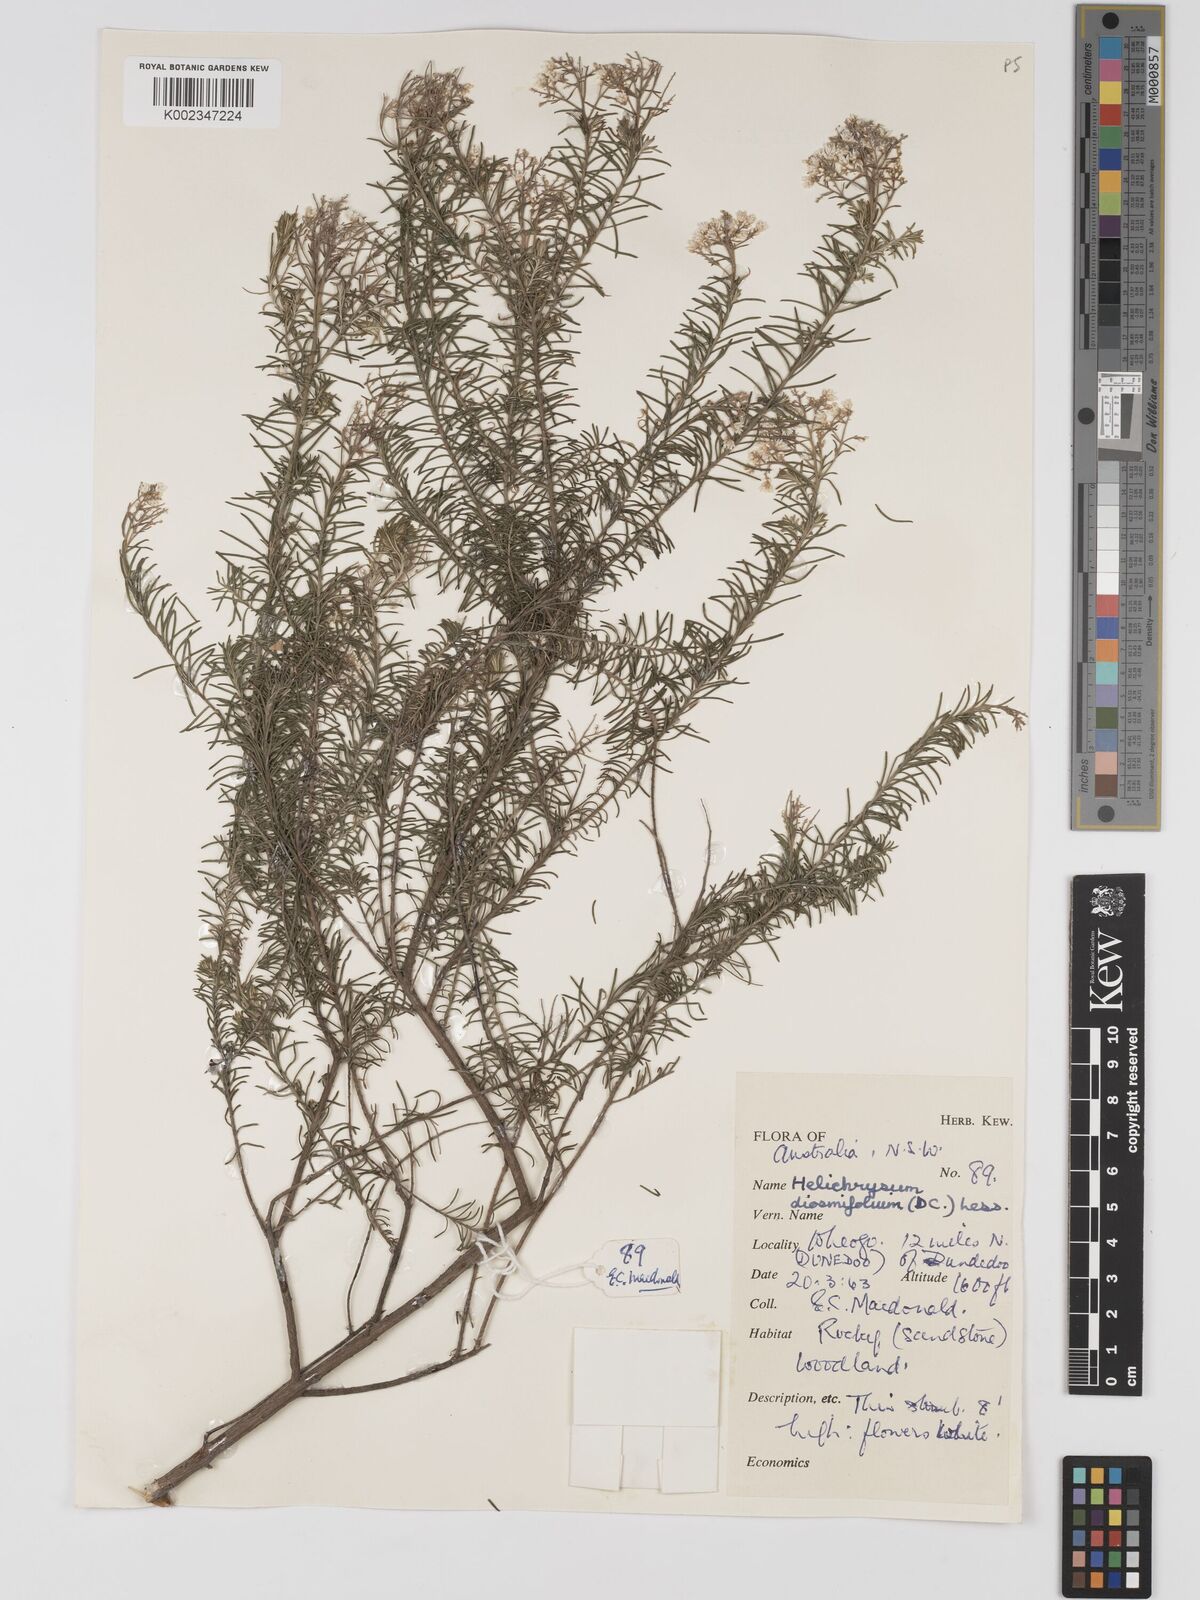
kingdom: Plantae
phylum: Tracheophyta
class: Magnoliopsida
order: Asterales
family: Asteraceae
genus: Ozothamnus
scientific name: Ozothamnus diosmifolius
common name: White-dogwood
